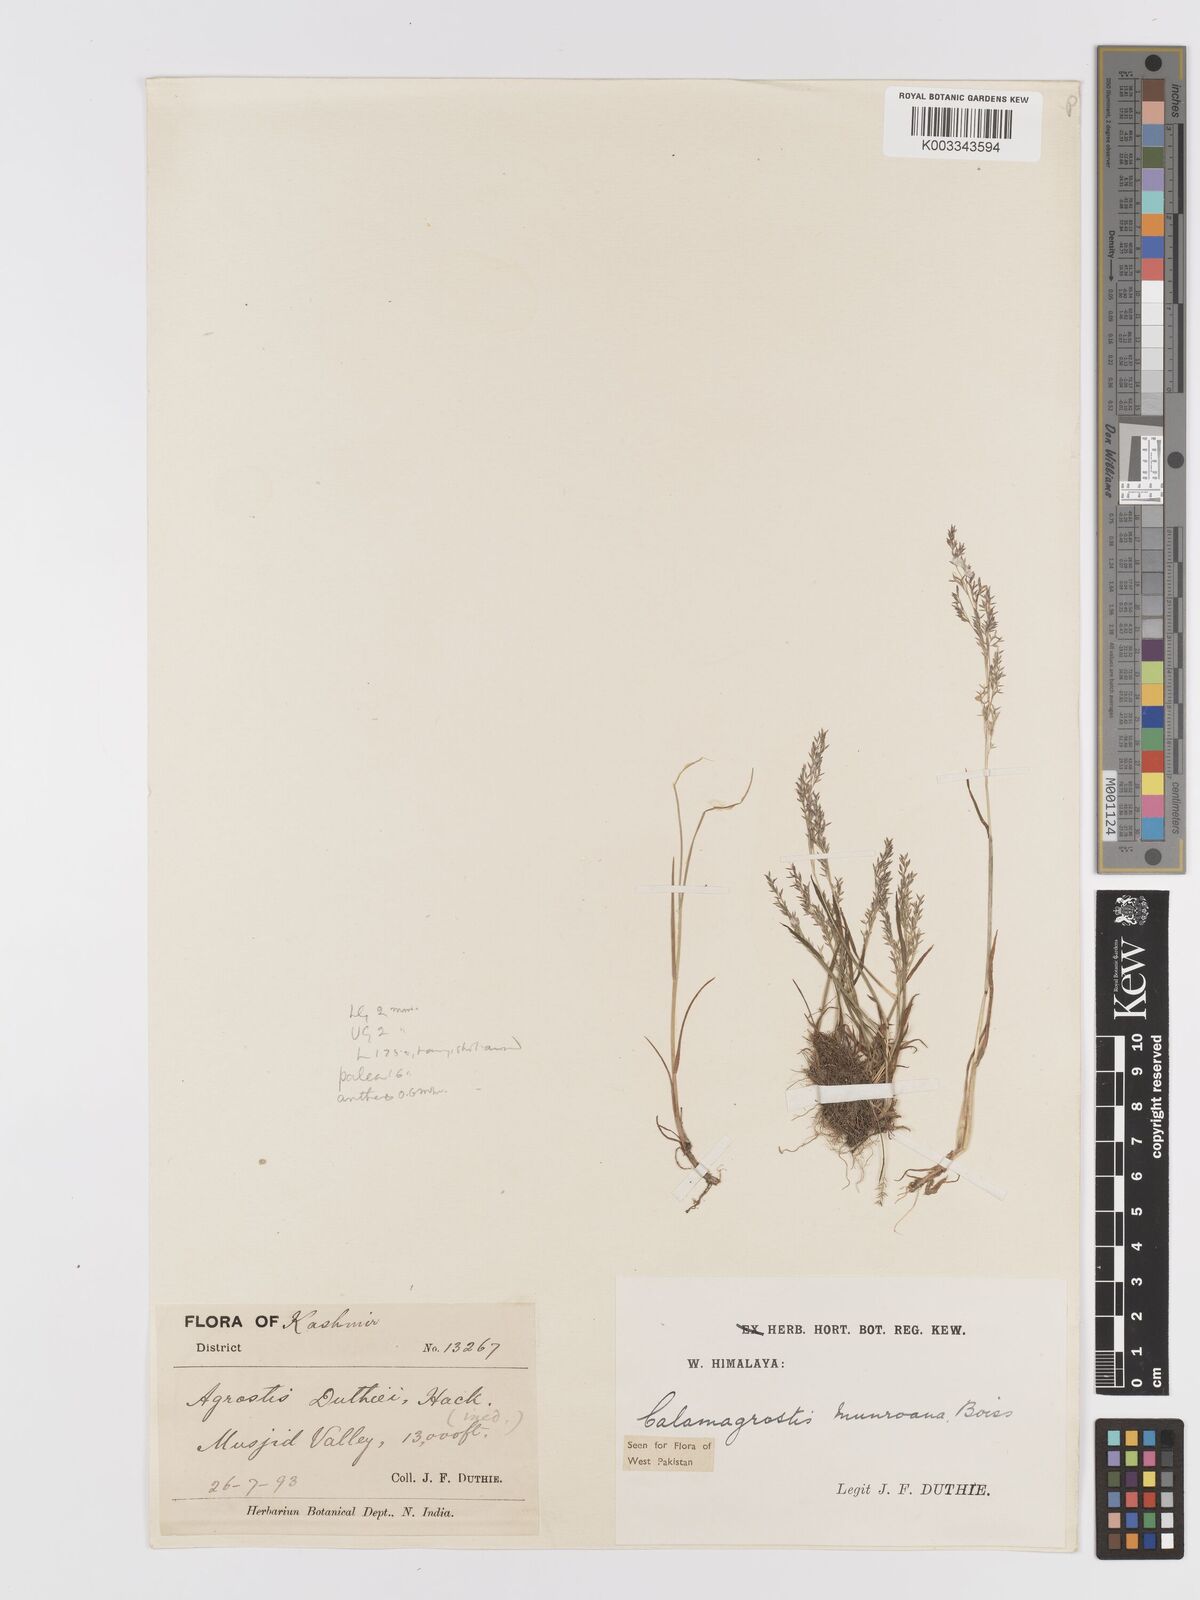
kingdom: Plantae
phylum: Tracheophyta
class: Liliopsida
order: Poales
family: Poaceae
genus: Agrostis
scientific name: Agrostis munroana
